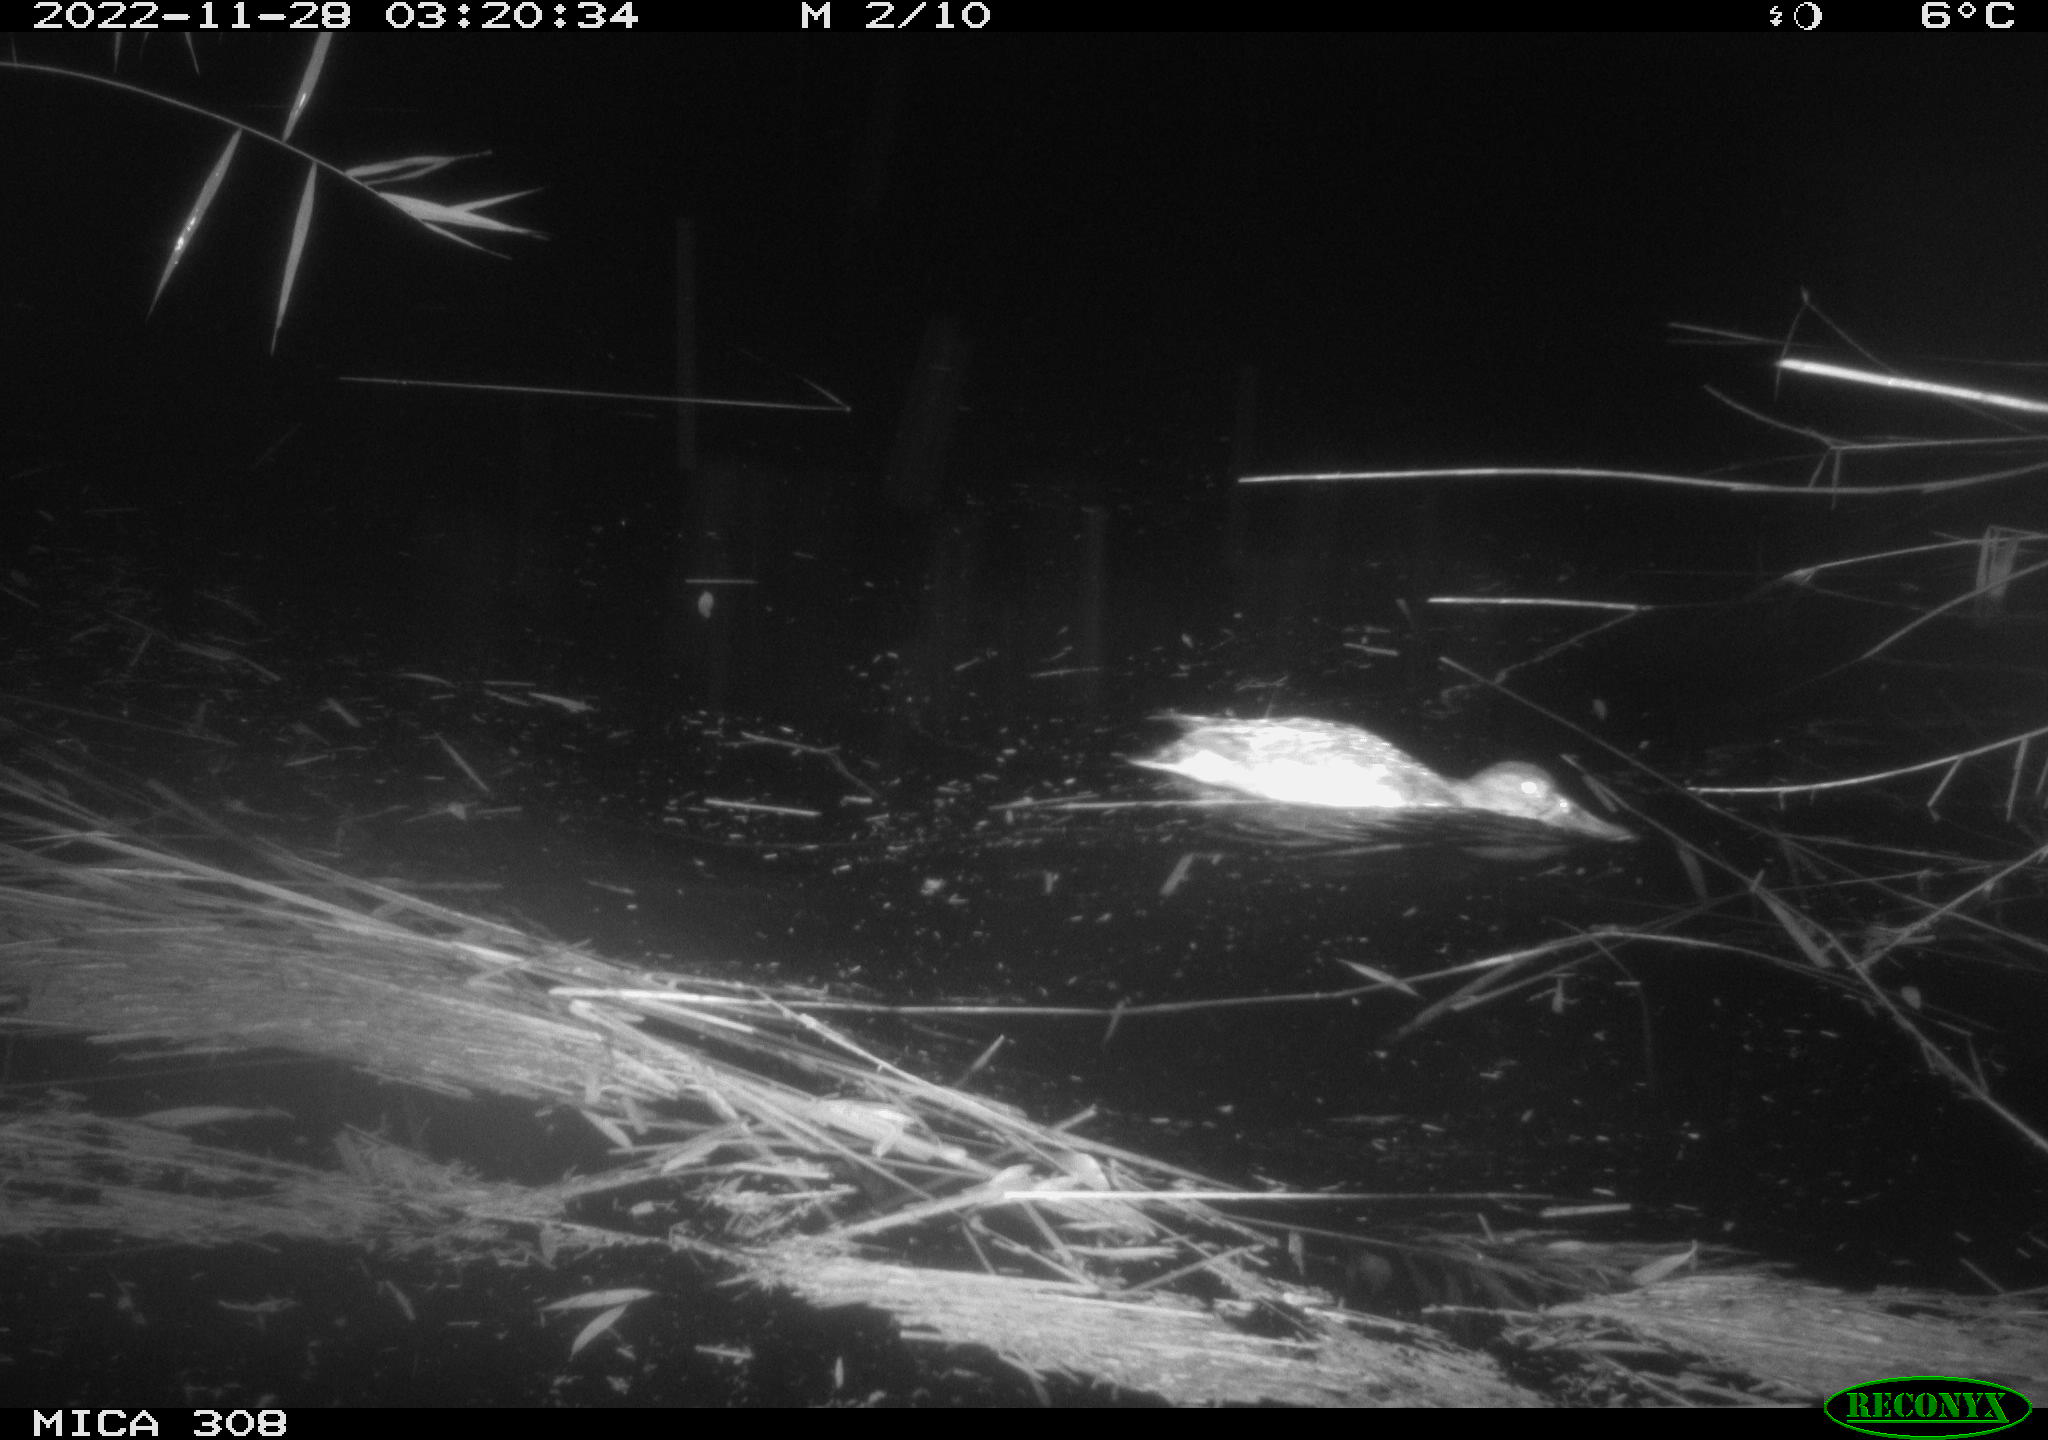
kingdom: Animalia
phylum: Chordata
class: Aves
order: Anseriformes
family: Anatidae
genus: Anas
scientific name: Anas
